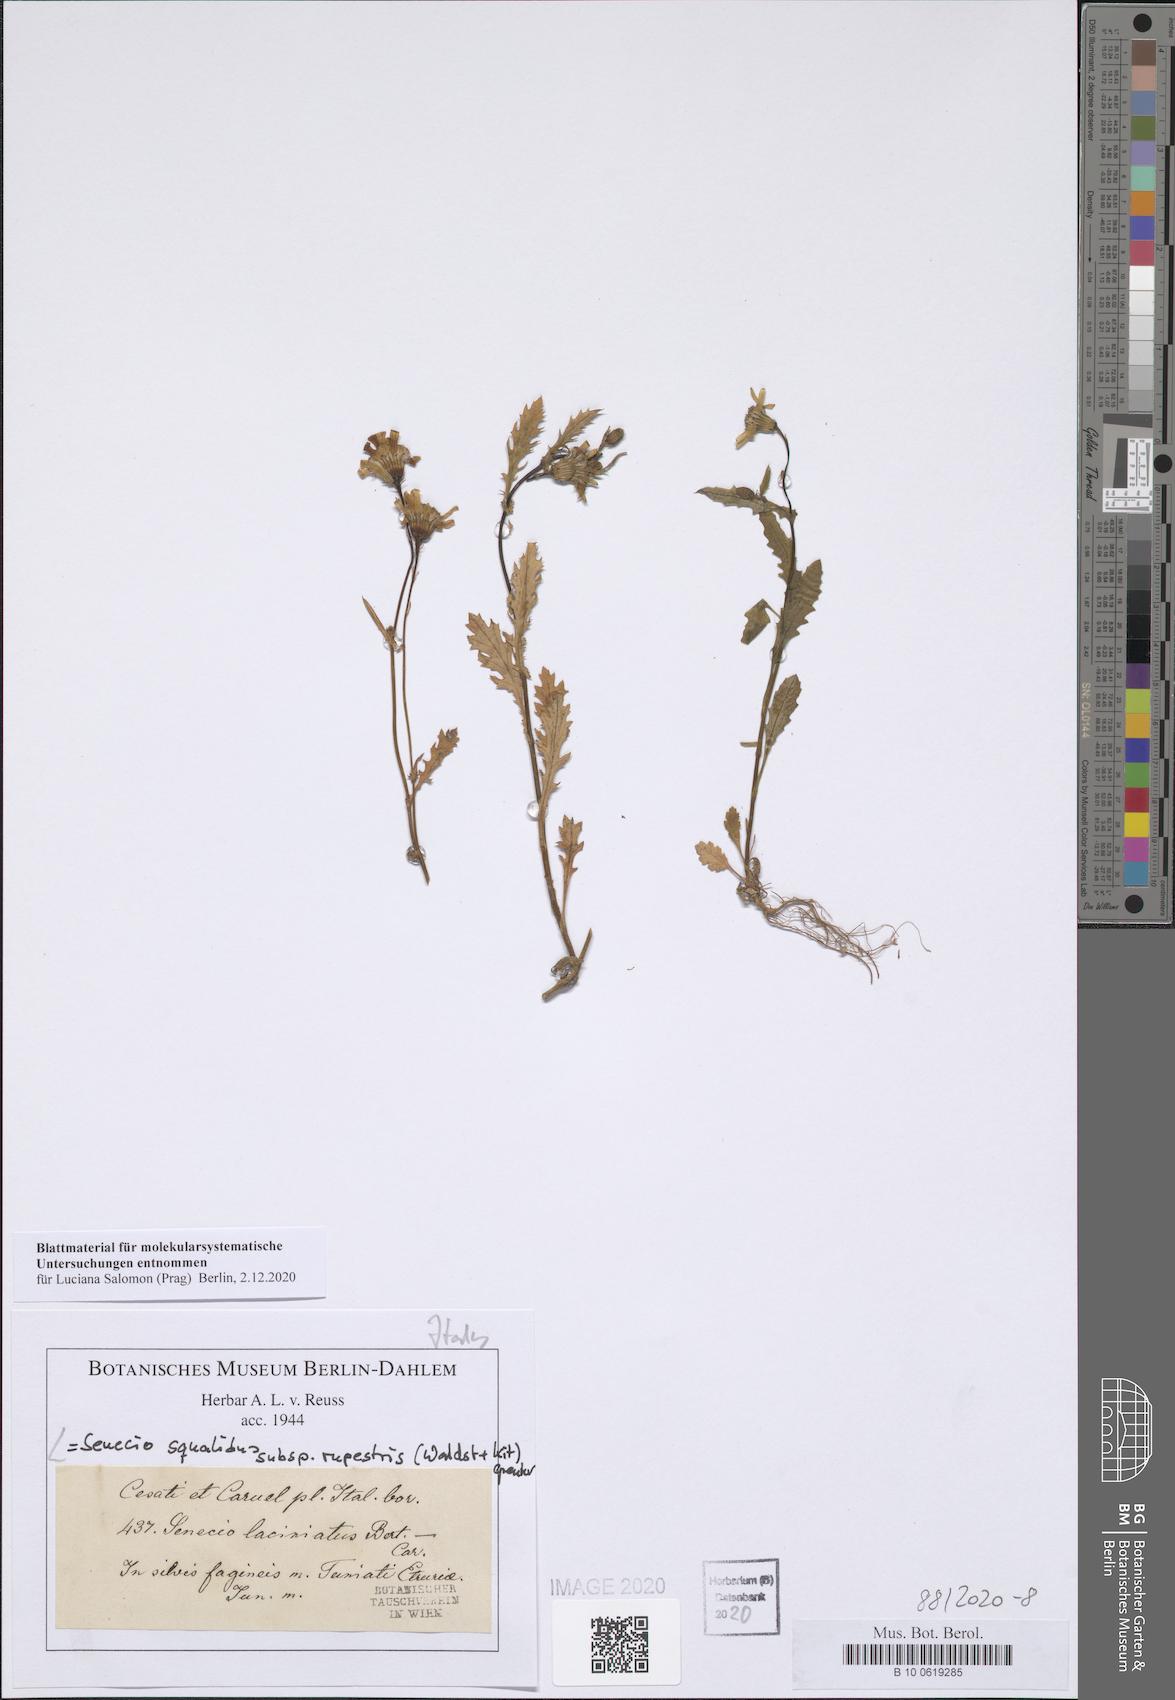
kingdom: Plantae
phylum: Tracheophyta
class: Magnoliopsida
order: Asterales
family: Asteraceae
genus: Senecio
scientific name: Senecio rupestris
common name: Rock ragwort
